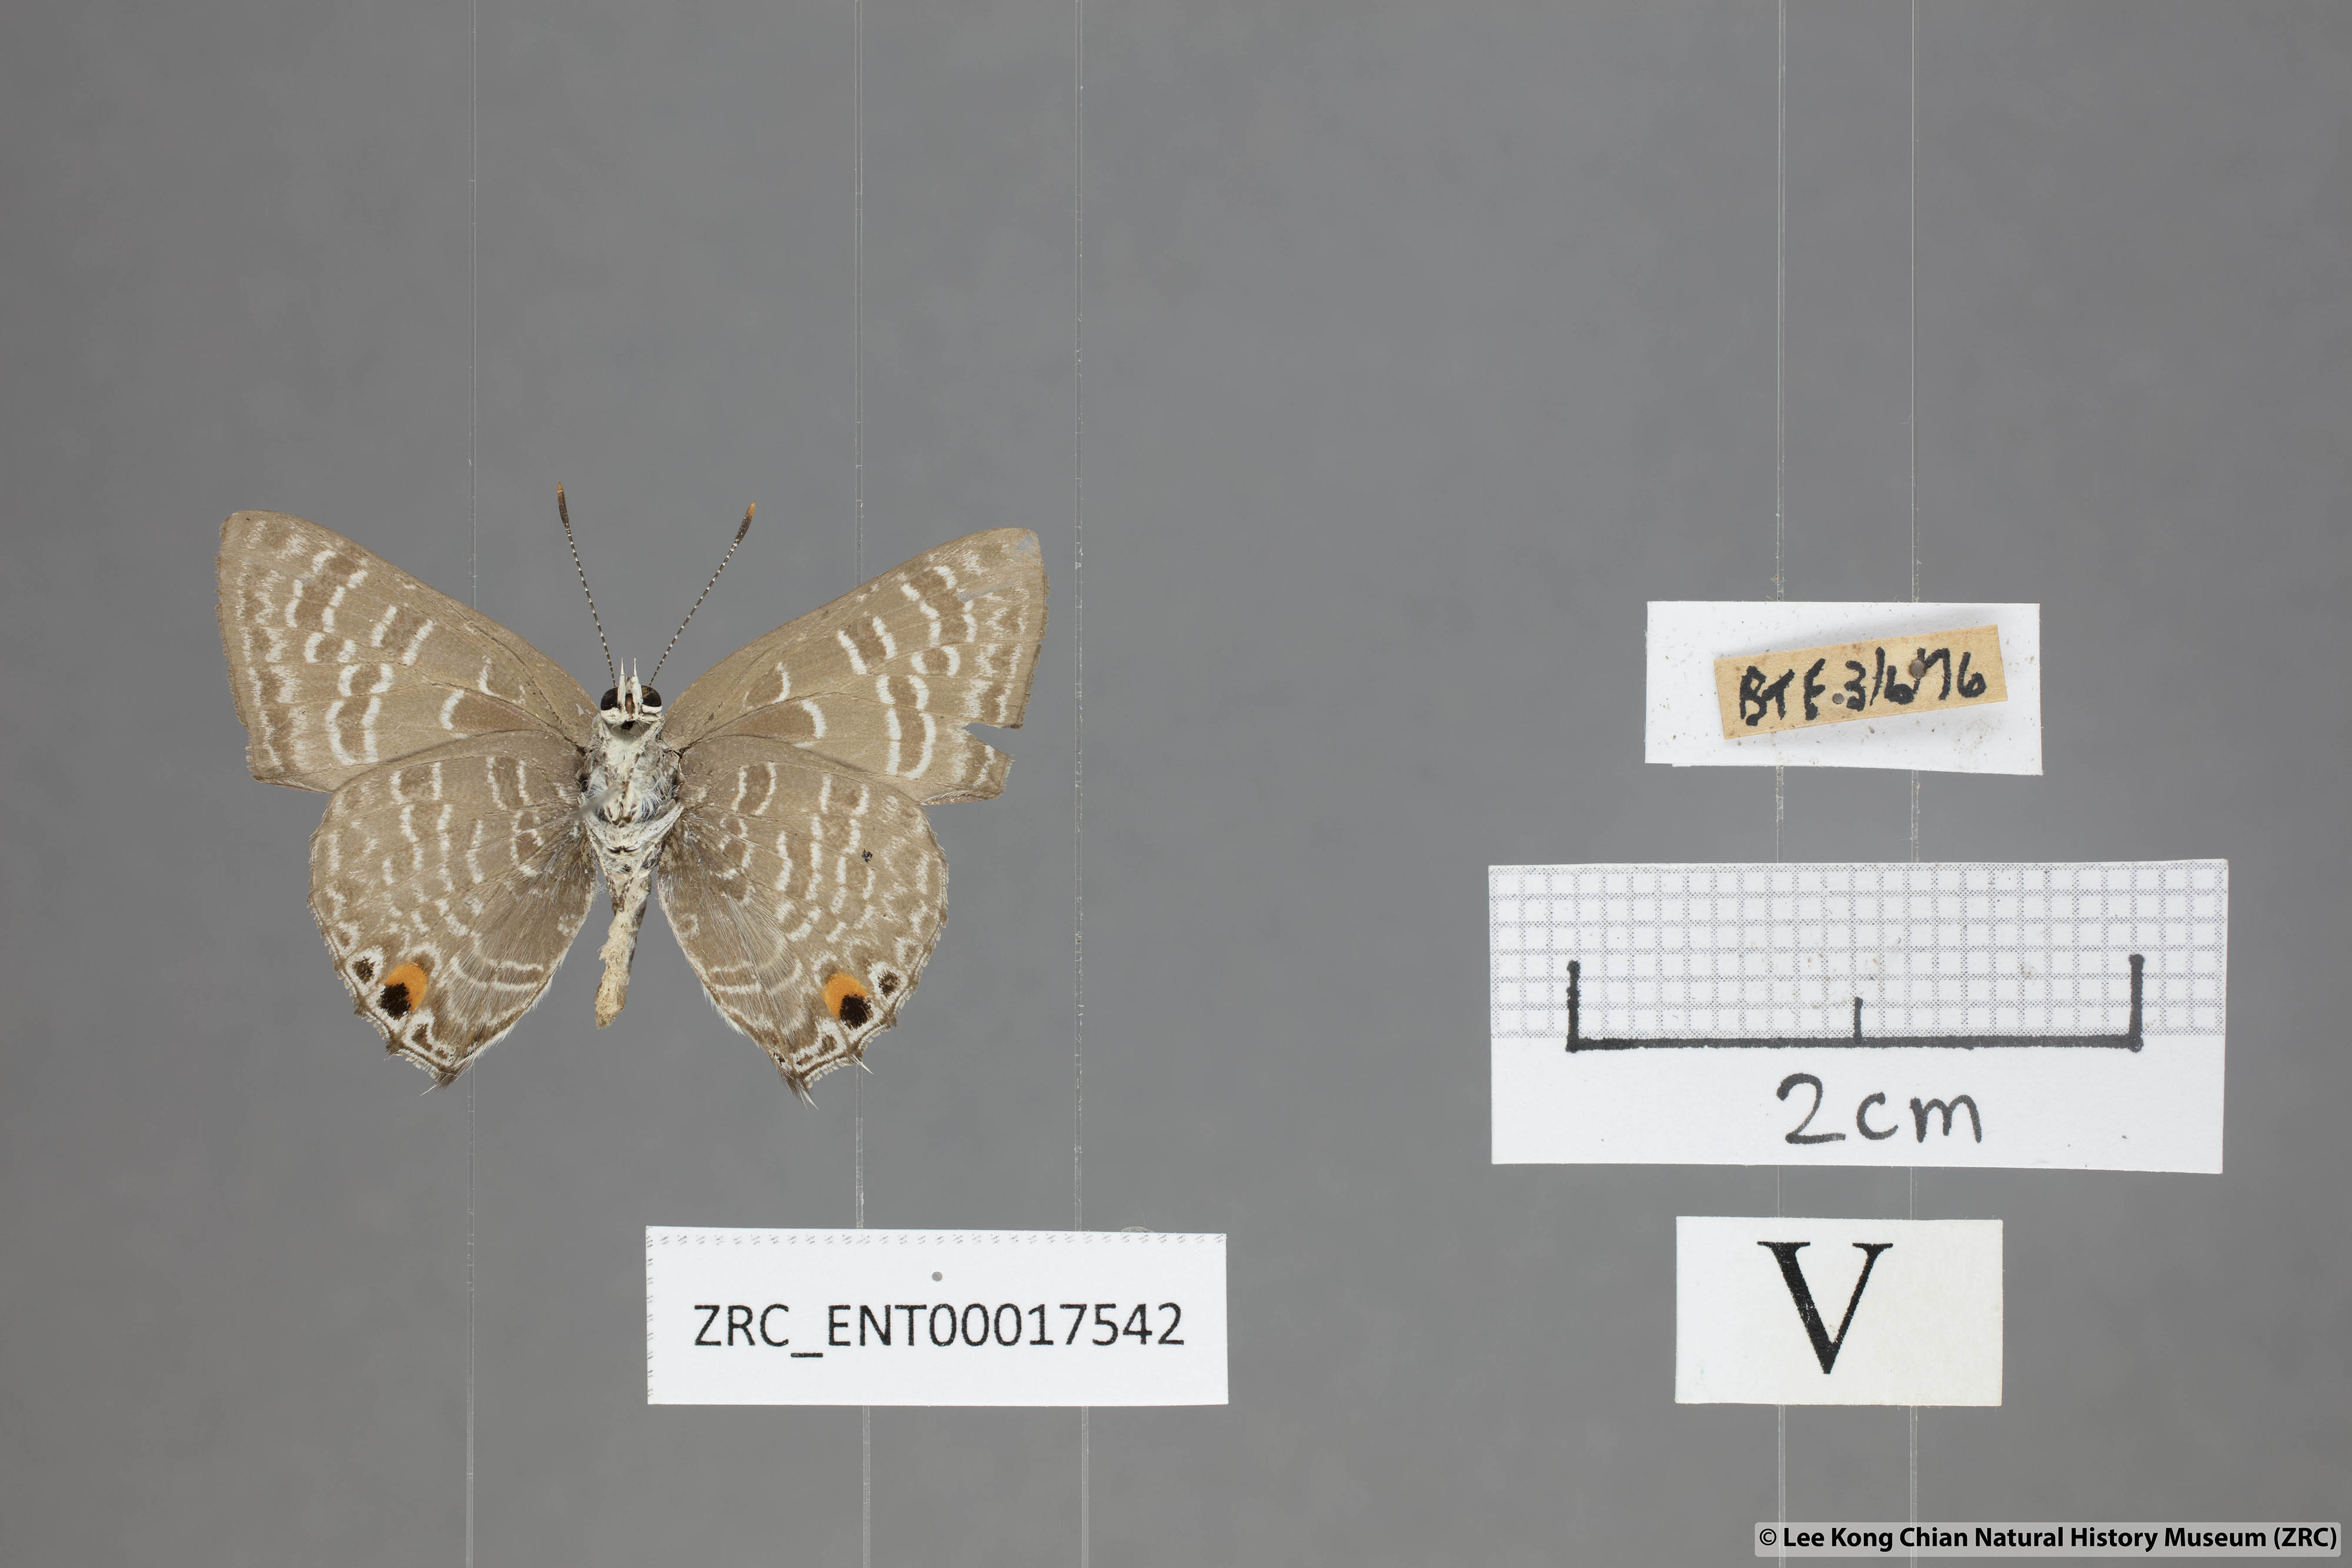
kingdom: Animalia
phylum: Arthropoda
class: Insecta
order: Lepidoptera
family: Lycaenidae
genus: Anthene
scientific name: Anthene licates
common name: White ciliate blue
